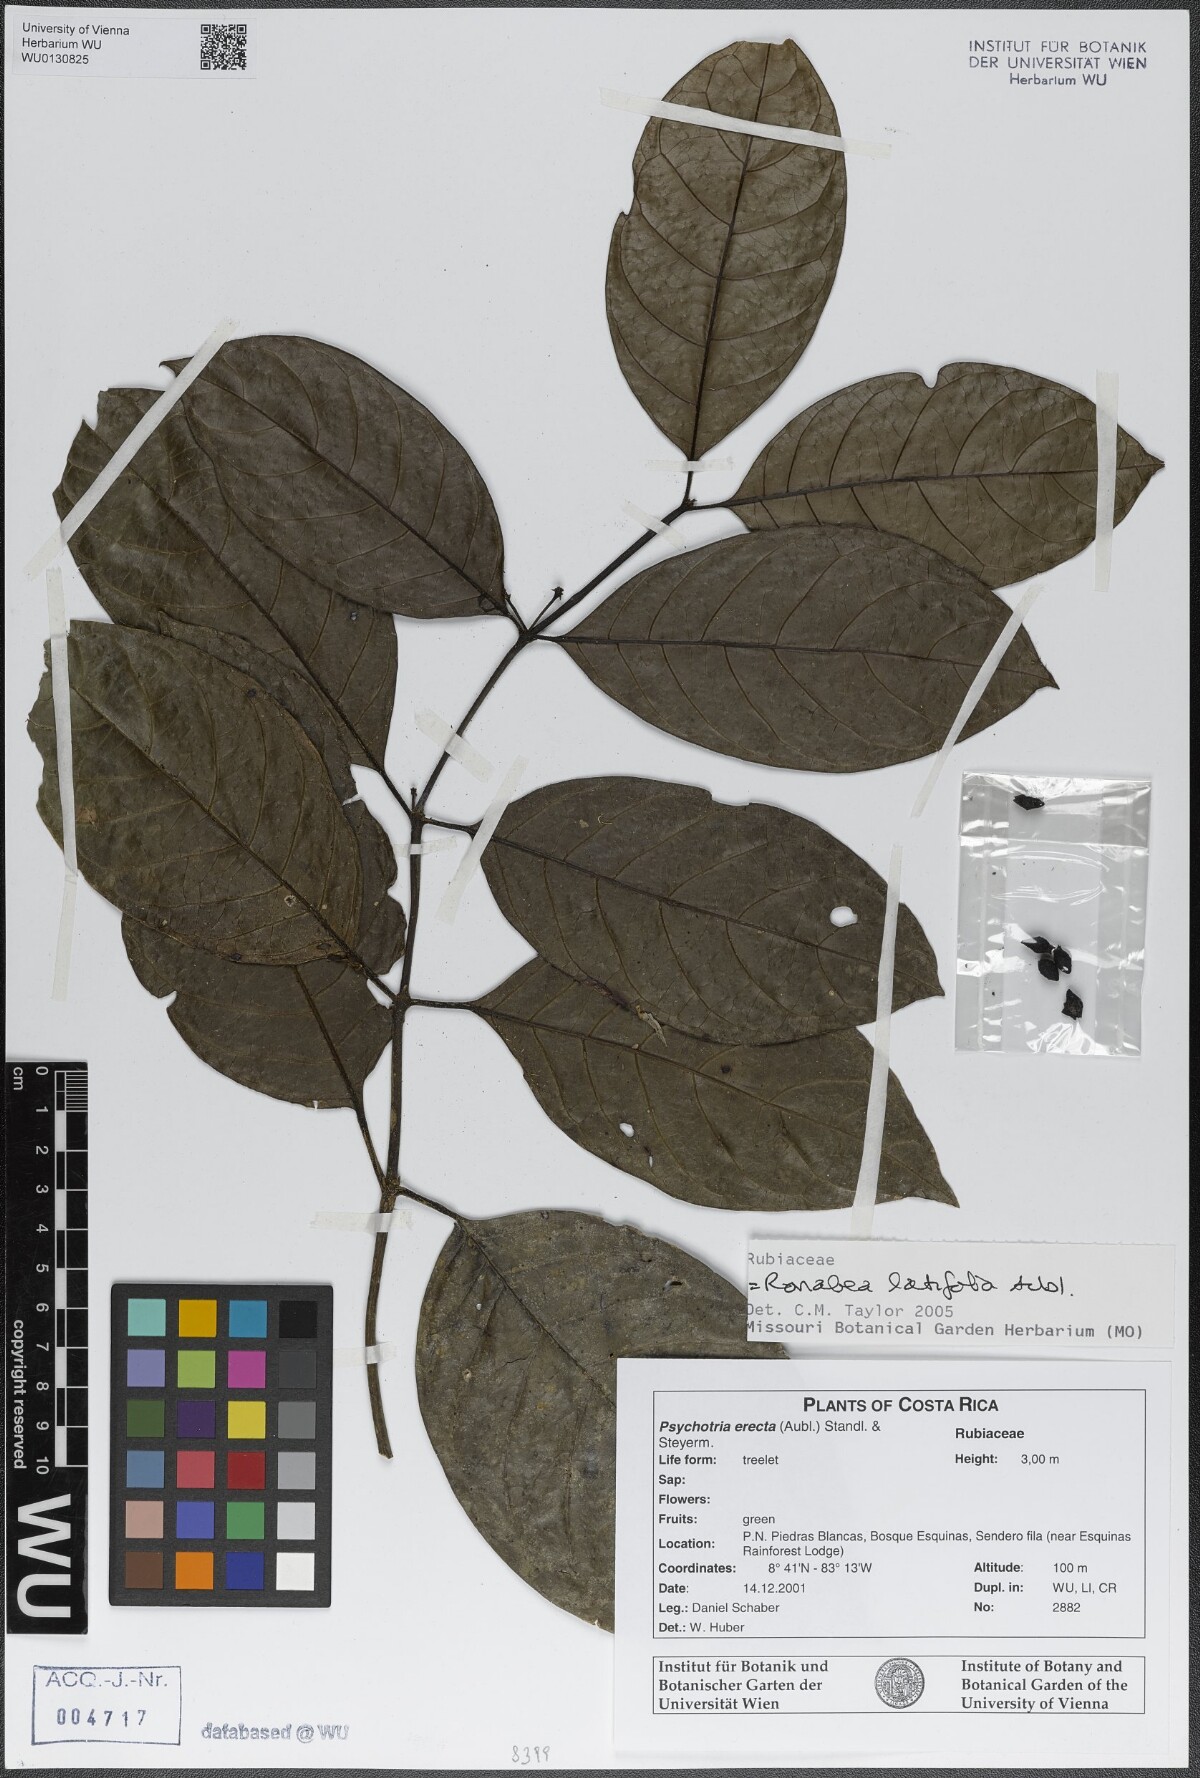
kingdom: Plantae
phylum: Tracheophyta
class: Magnoliopsida
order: Gentianales
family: Rubiaceae
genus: Ronabea
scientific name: Ronabea latifolia
